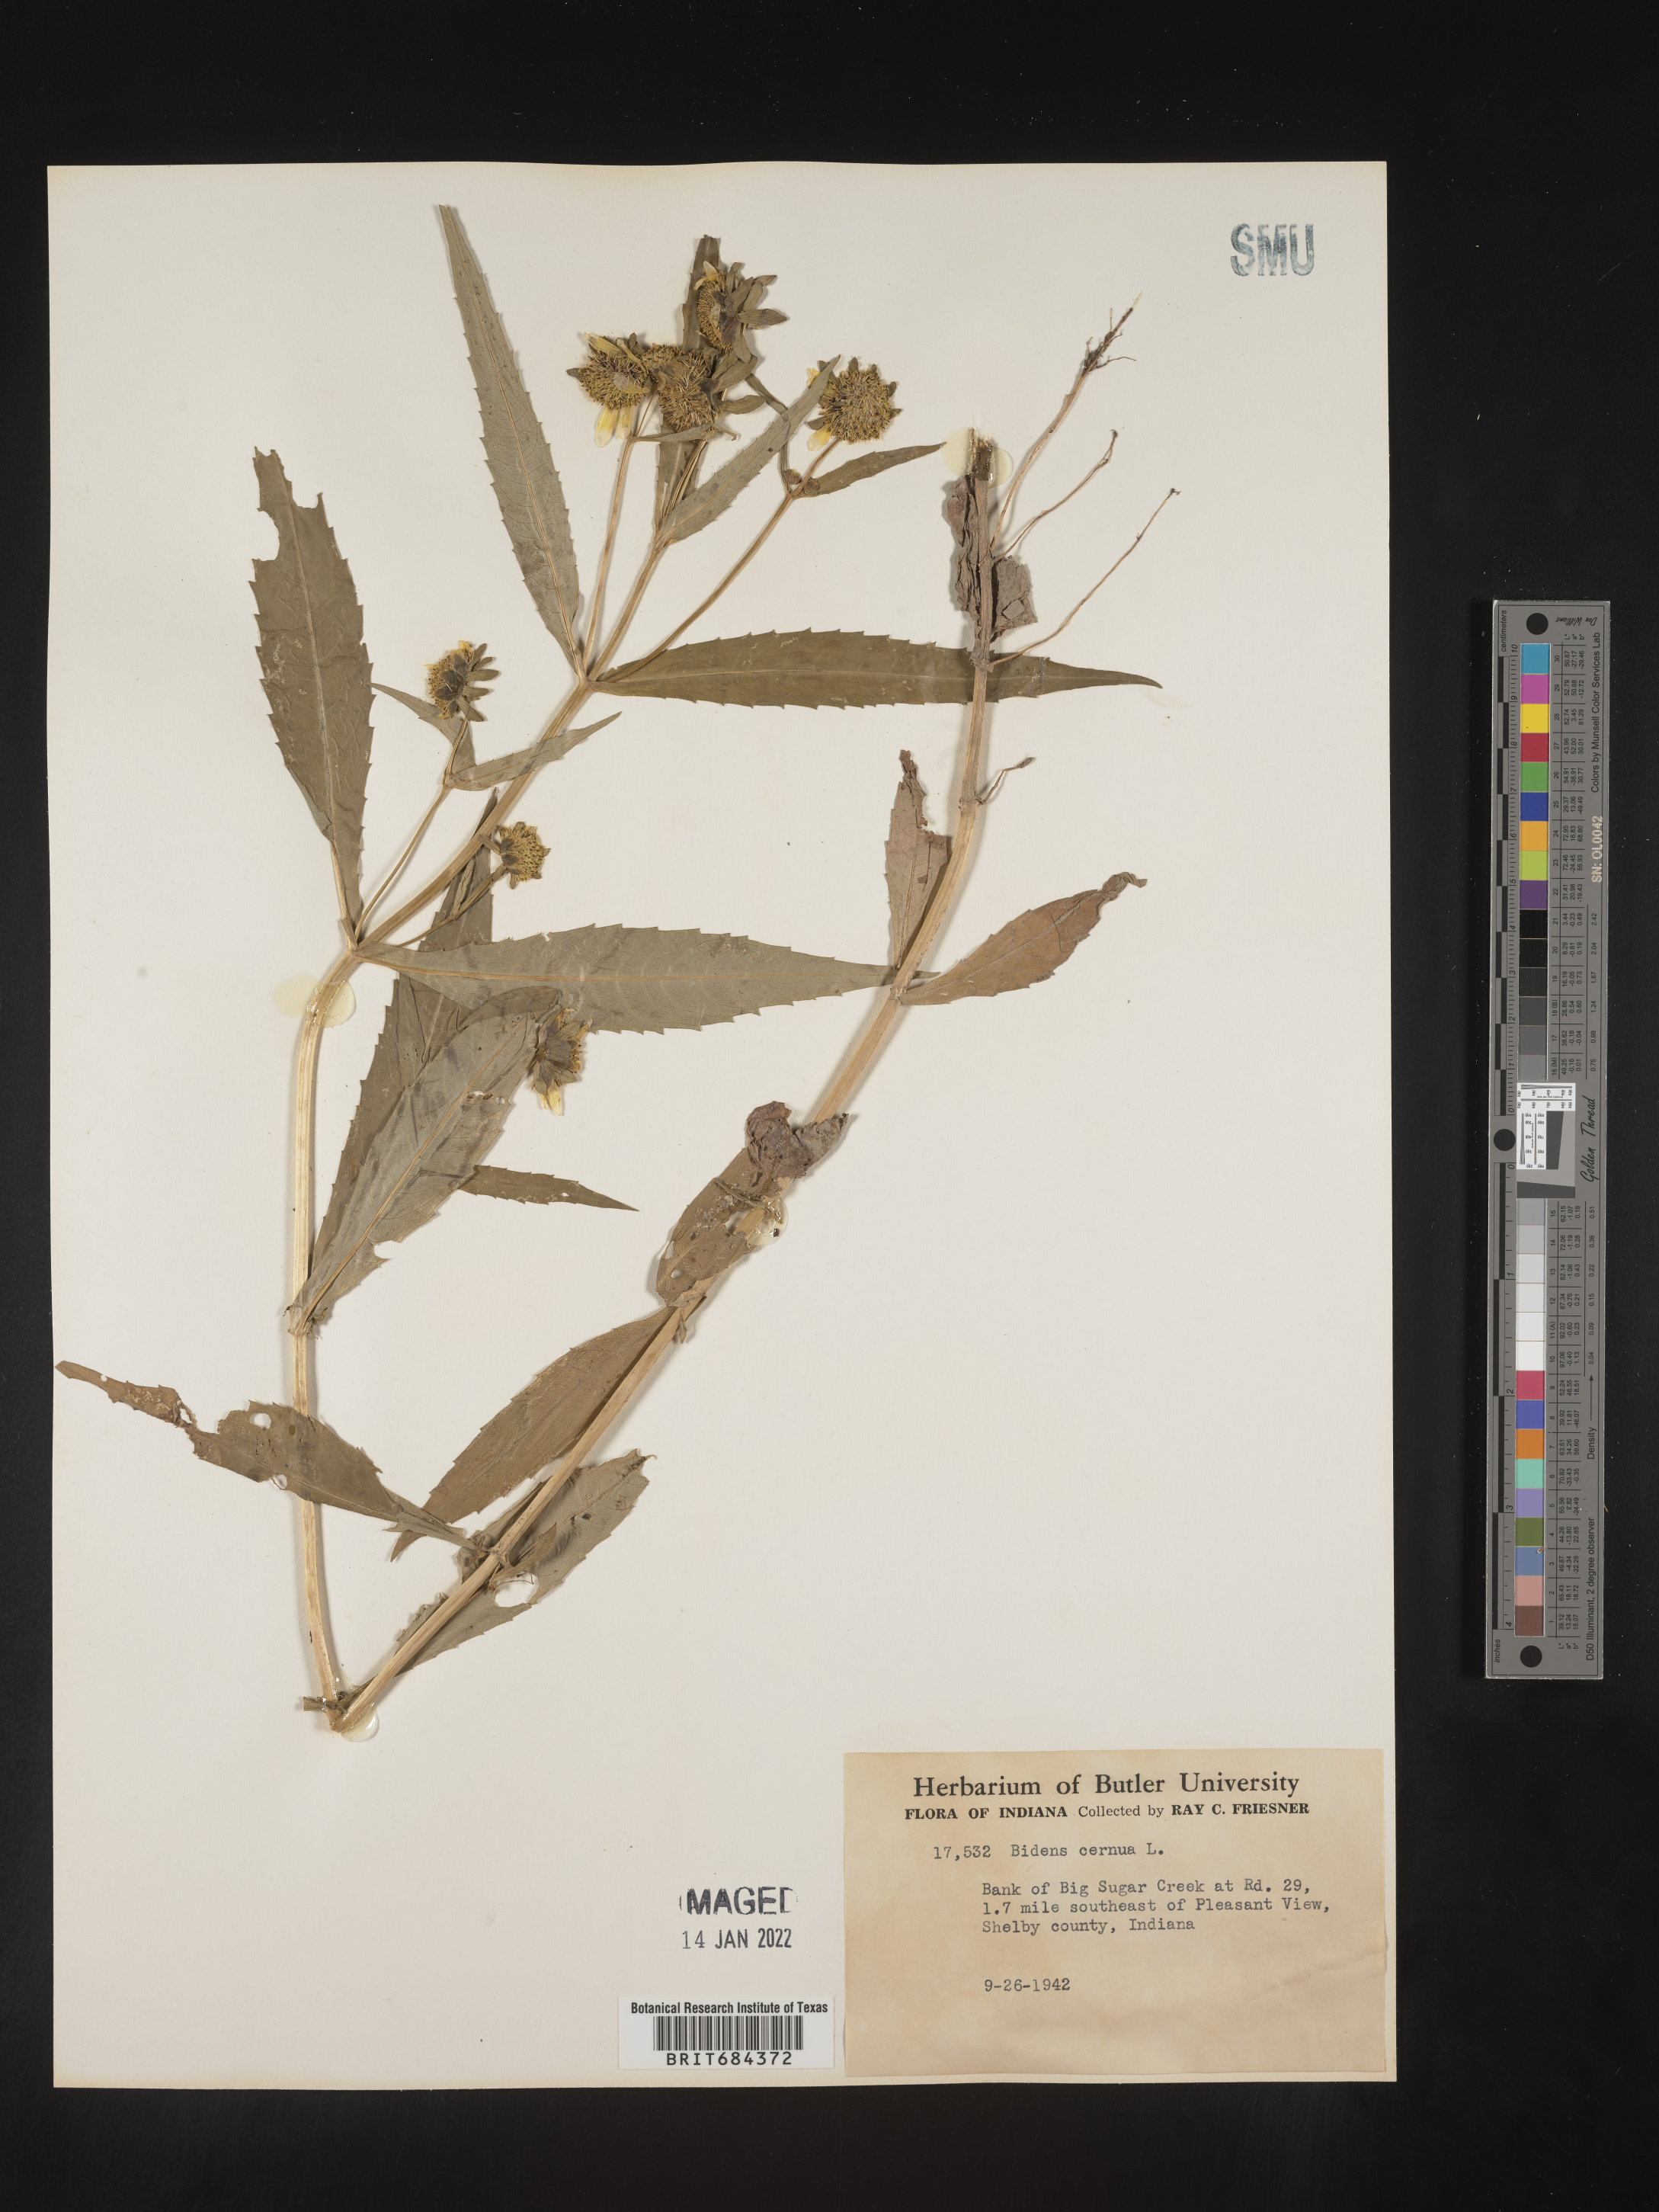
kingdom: Plantae
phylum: Tracheophyta
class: Magnoliopsida
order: Asterales
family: Asteraceae
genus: Bidens
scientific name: Bidens cernua
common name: Nodding bur-marigold
